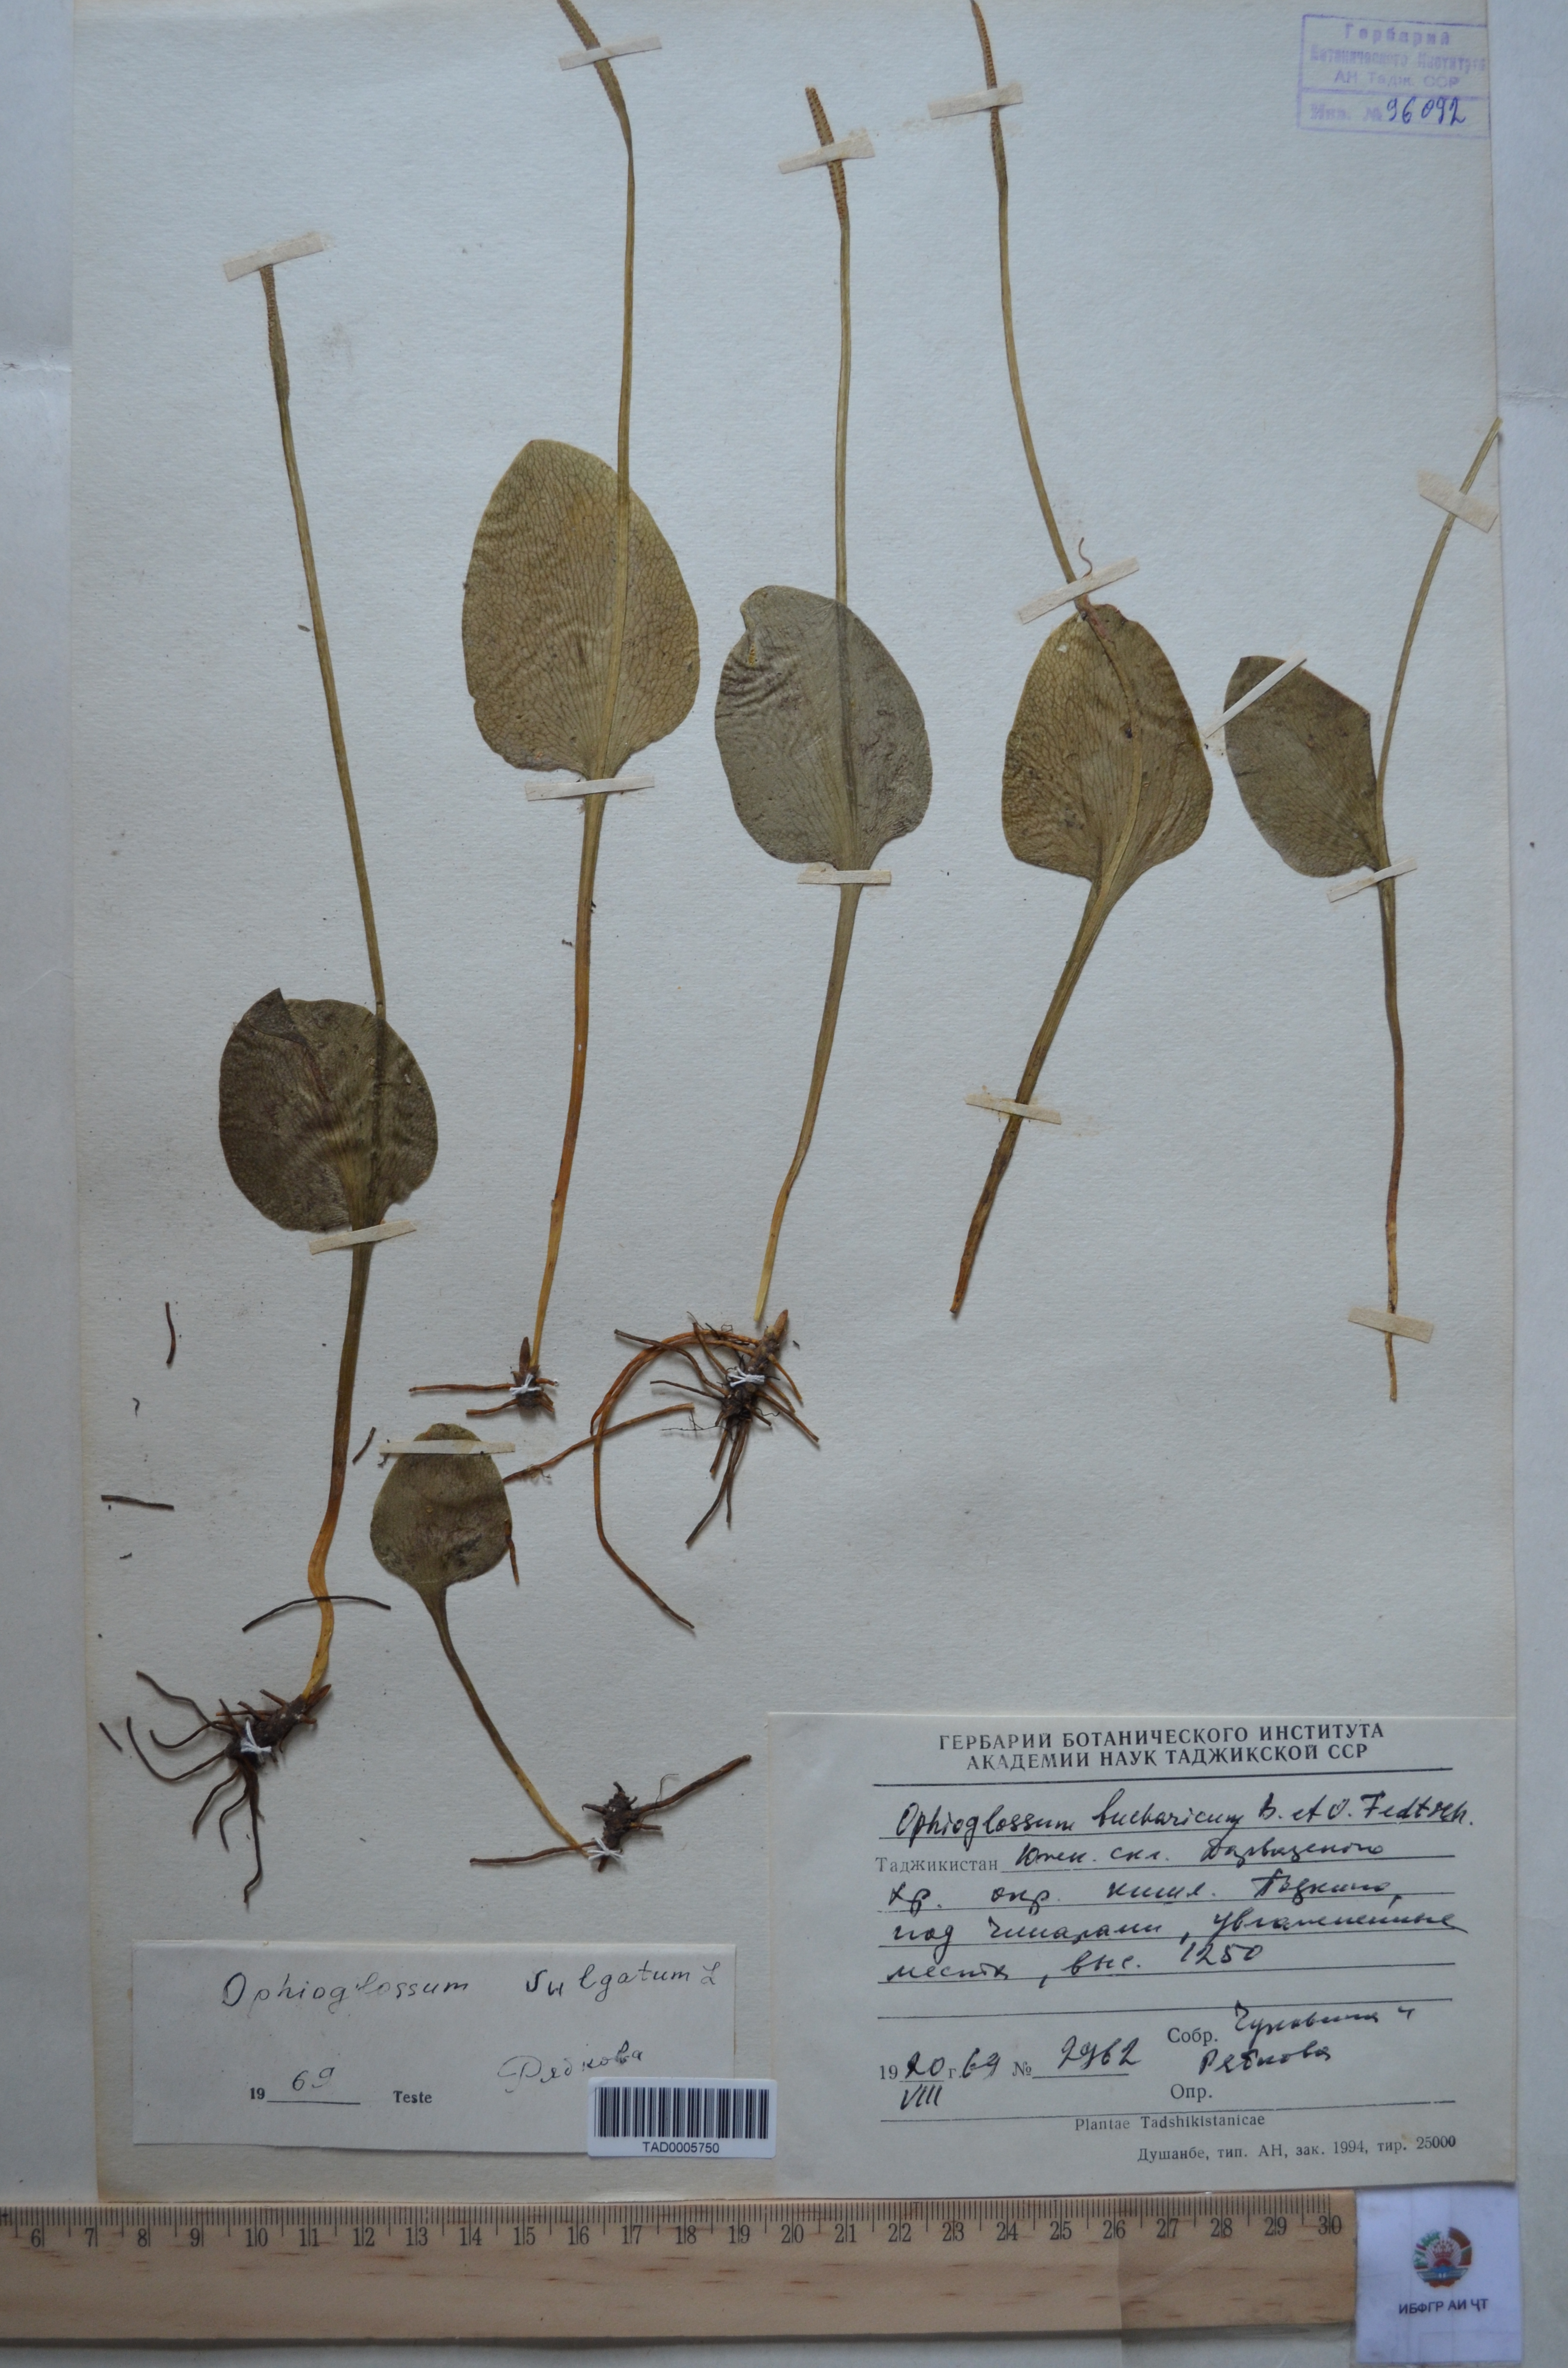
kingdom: Plantae
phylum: Tracheophyta
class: Polypodiopsida
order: Ophioglossales
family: Ophioglossaceae
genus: Ophioglossum
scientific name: Ophioglossum vulgatum
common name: Adder's-tongue
